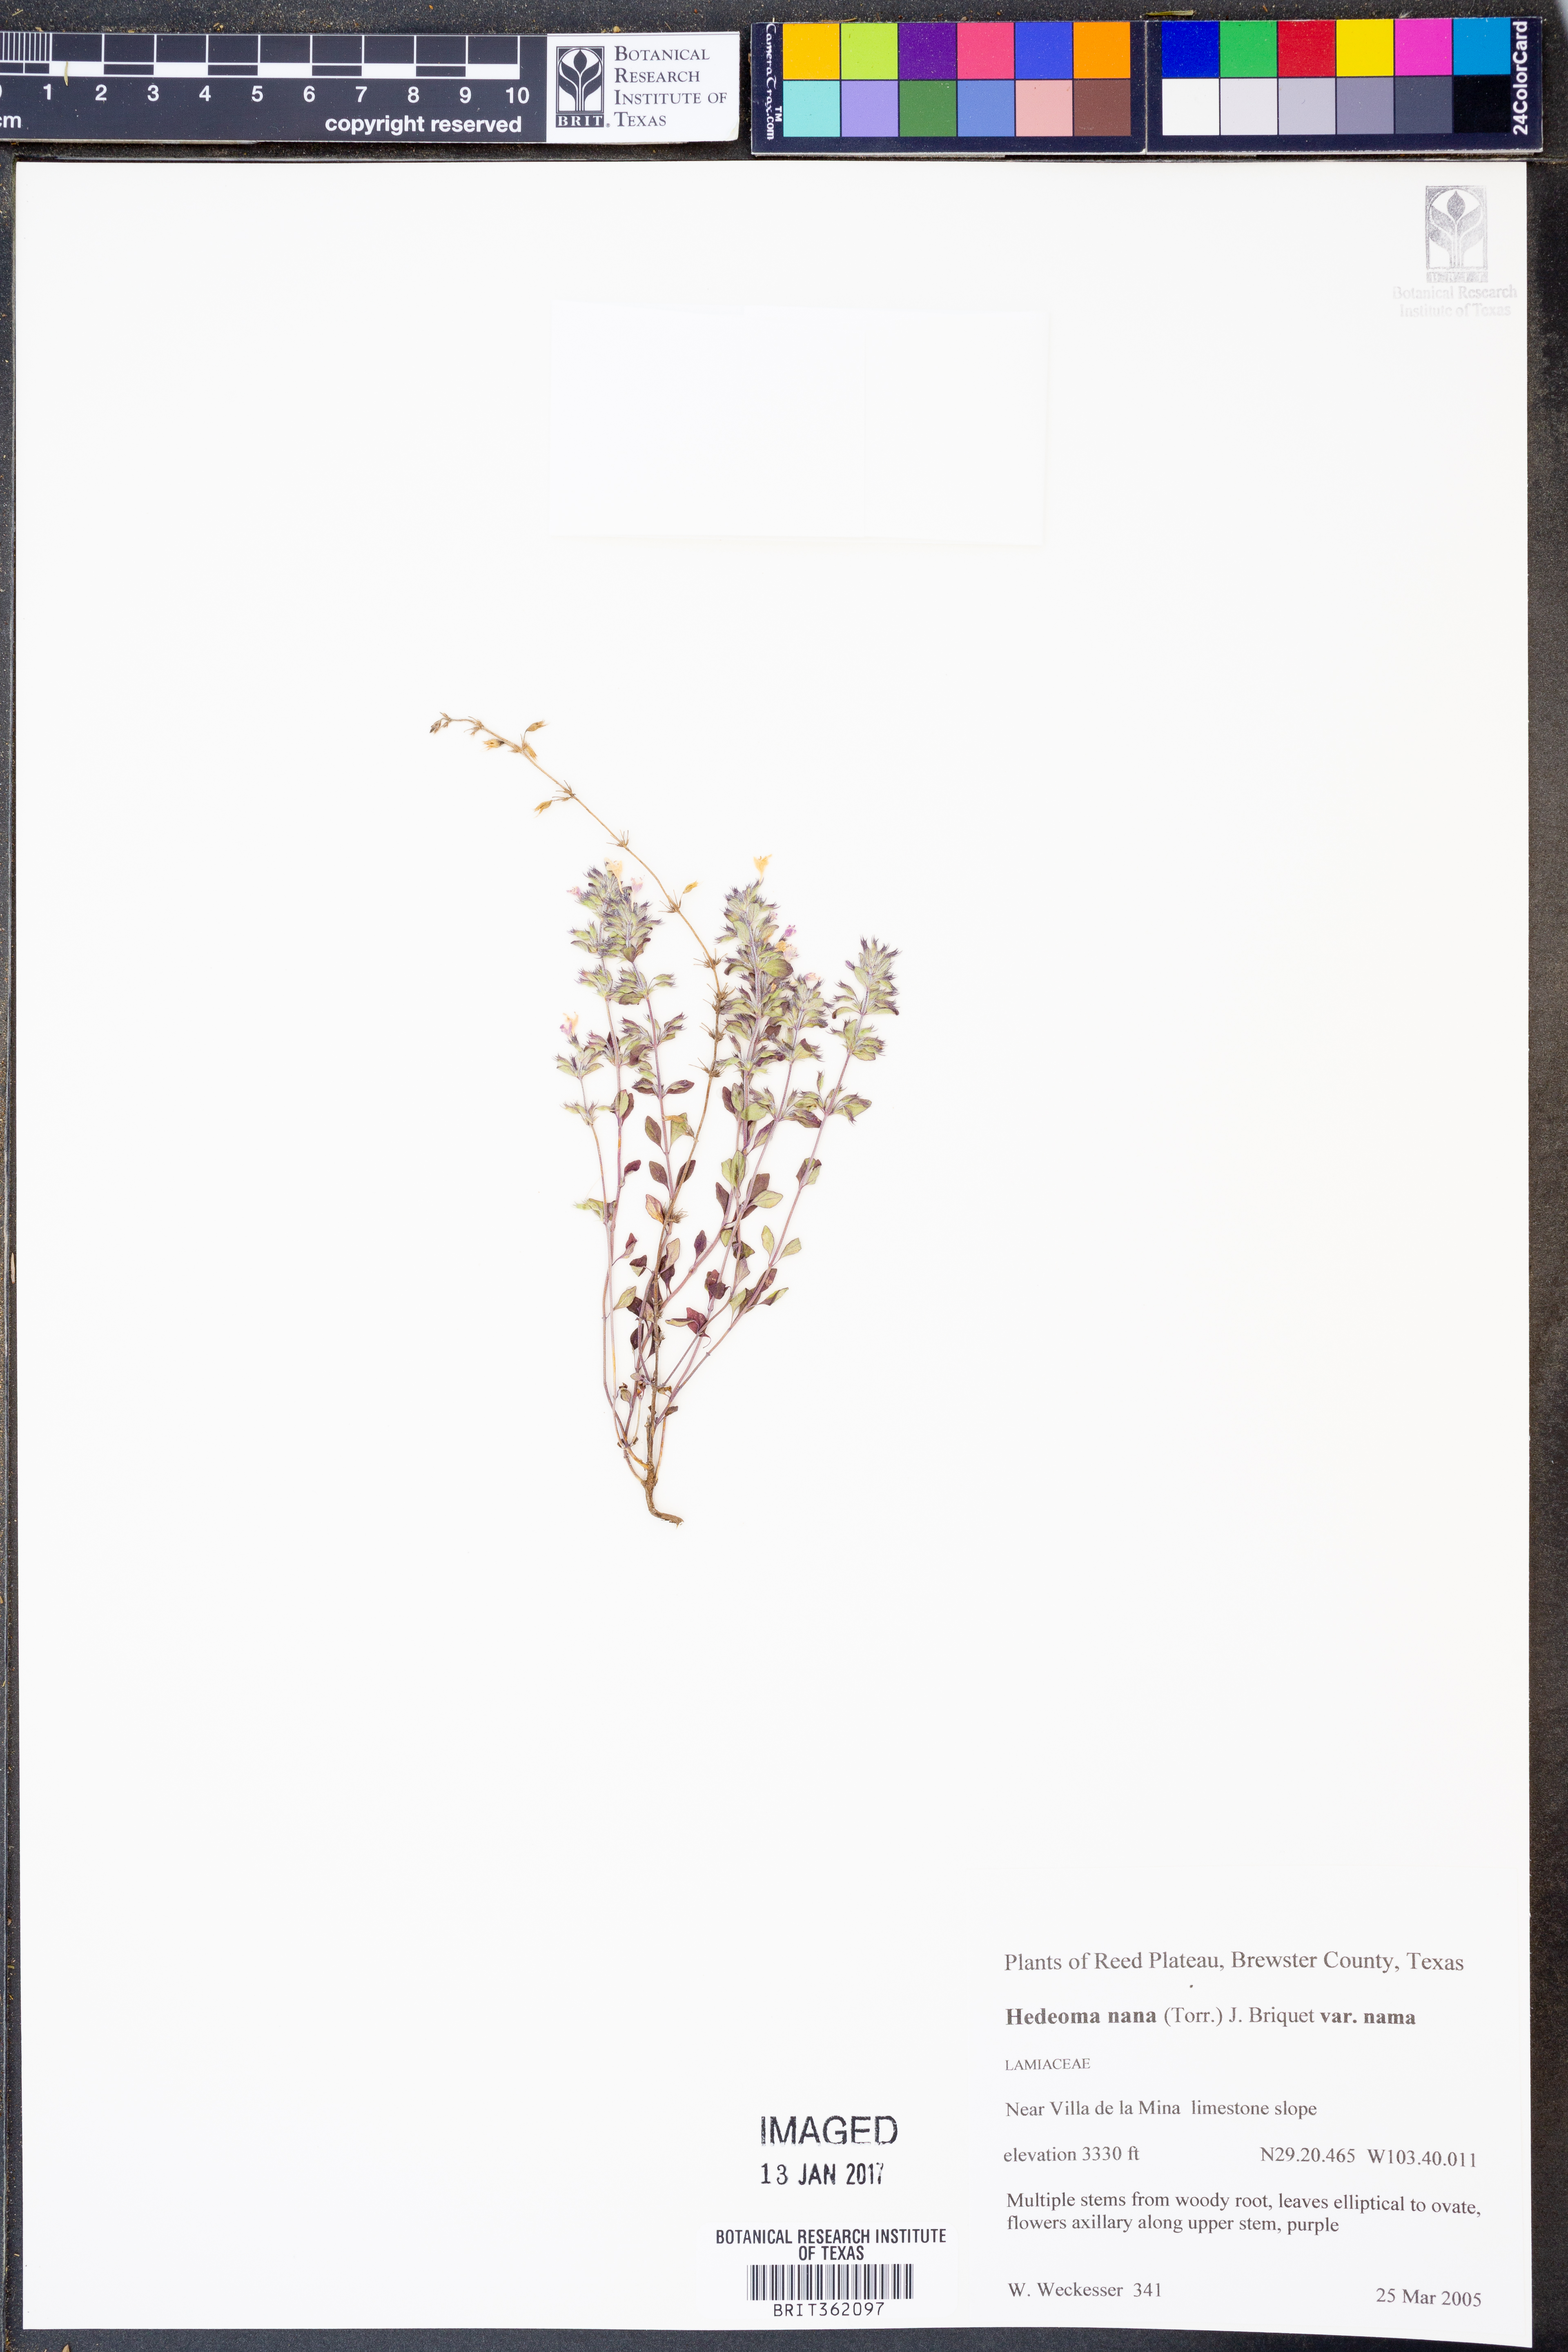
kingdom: Plantae
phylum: Tracheophyta
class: Magnoliopsida
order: Lamiales
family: Lamiaceae
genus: Hedeoma
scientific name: Hedeoma nana
